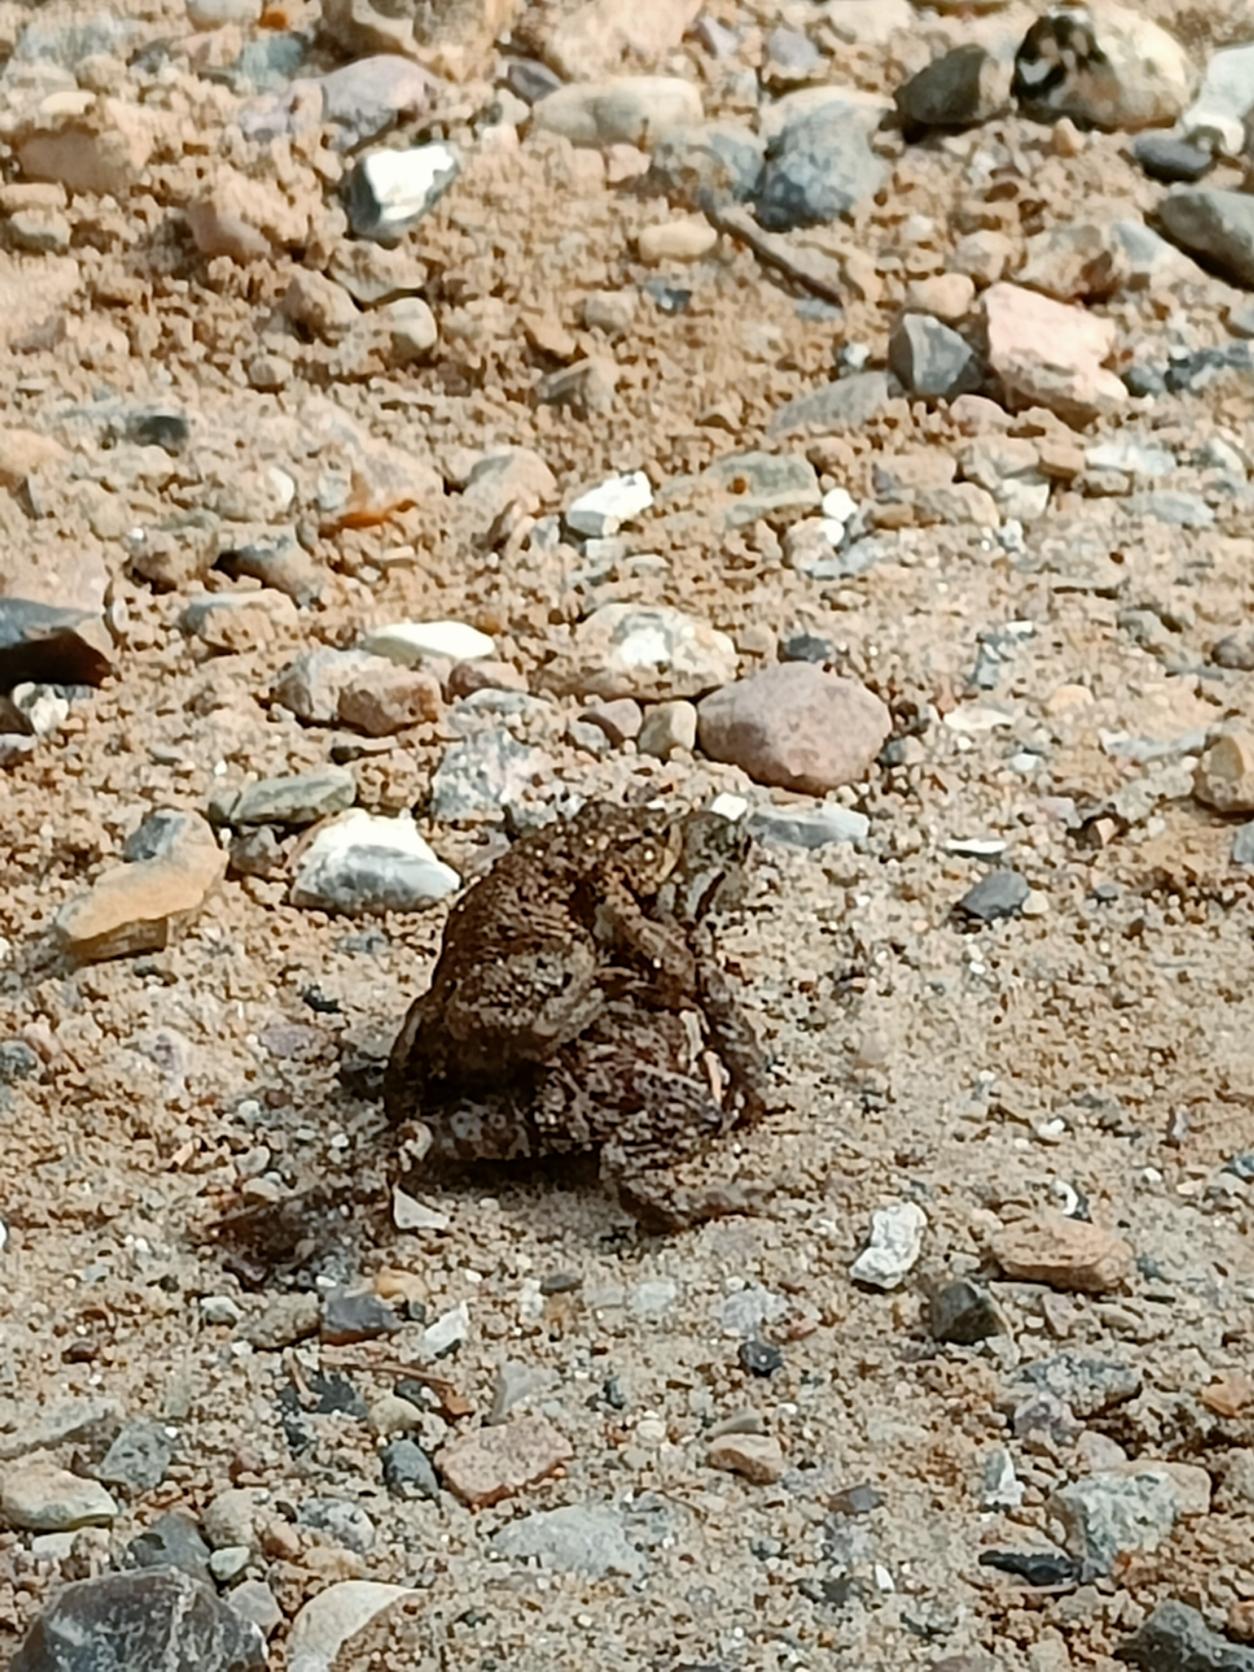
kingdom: Animalia
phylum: Chordata
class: Amphibia
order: Anura
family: Bufonidae
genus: Bufo
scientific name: Bufo bufo
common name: Skrubtudse
